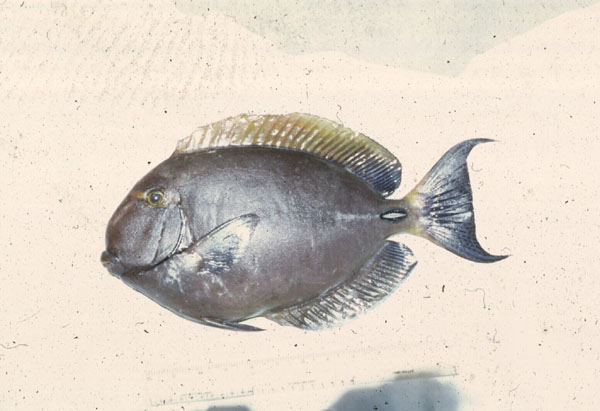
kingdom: Animalia
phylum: Chordata
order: Perciformes
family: Acanthuridae
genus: Acanthurus
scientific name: Acanthurus dussumieri
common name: Dussumier's surgeonfish
